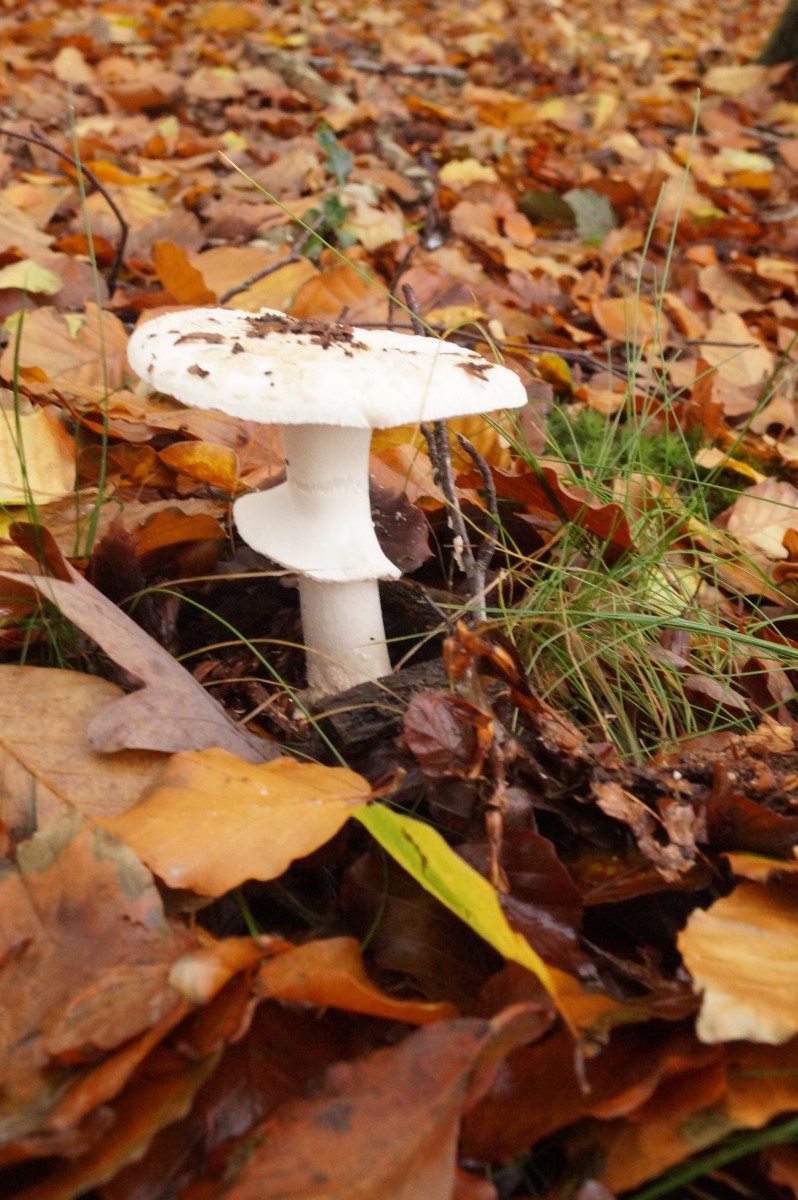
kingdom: Fungi
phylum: Basidiomycota
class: Agaricomycetes
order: Agaricales
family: Amanitaceae
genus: Amanita
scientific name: Amanita citrina
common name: False death-cap
